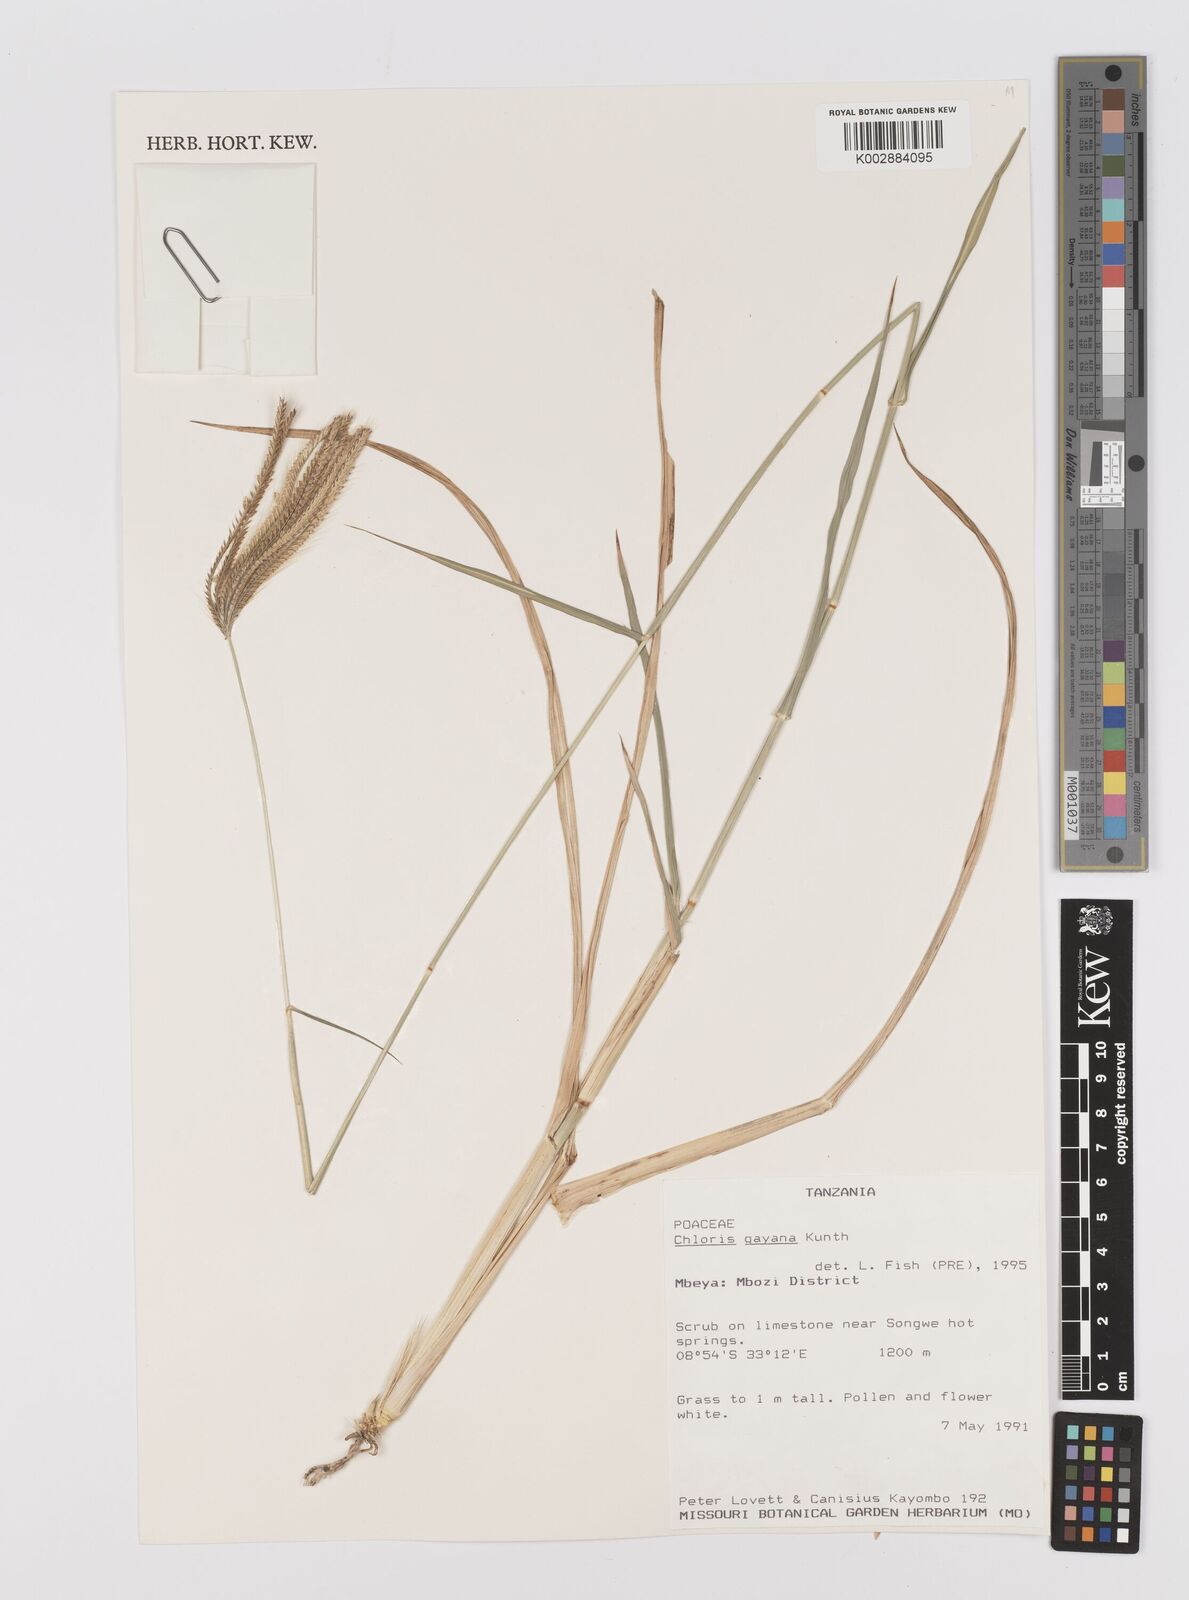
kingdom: Plantae
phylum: Tracheophyta
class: Liliopsida
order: Poales
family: Poaceae
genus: Chloris
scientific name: Chloris gayana
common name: Rhodes grass
